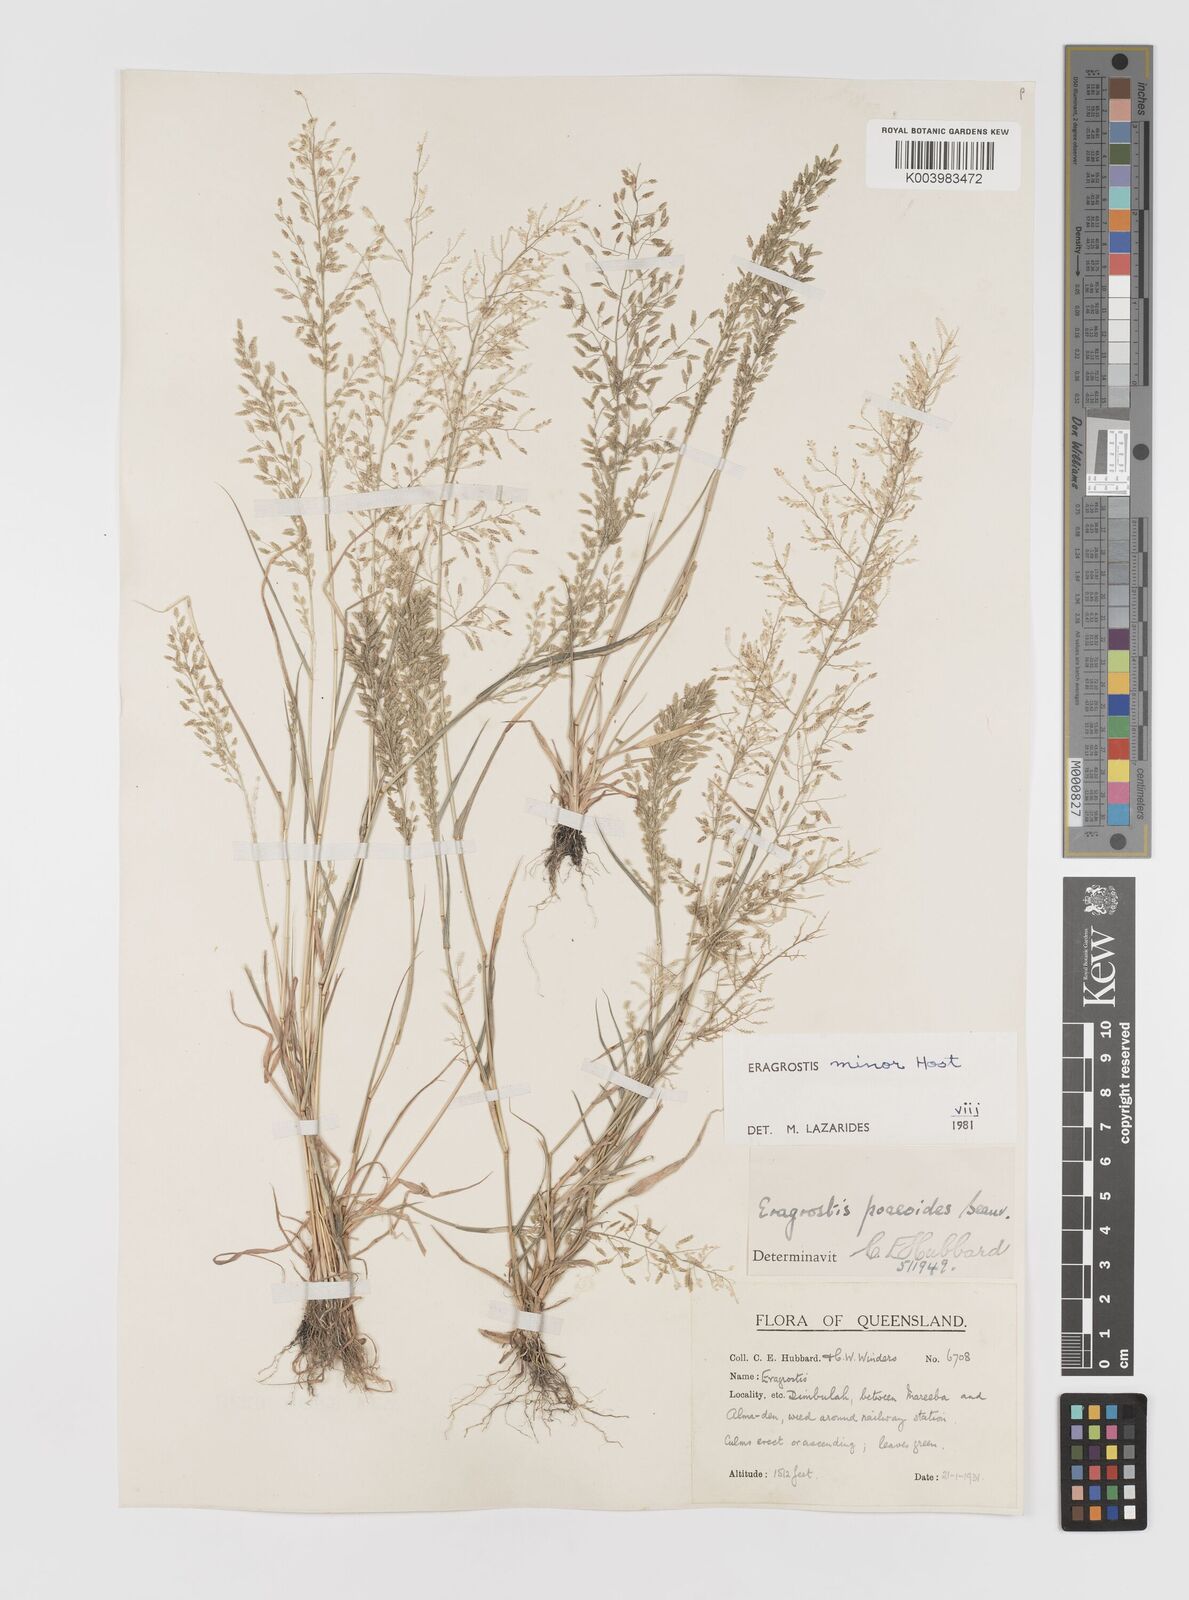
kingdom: Plantae
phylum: Tracheophyta
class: Liliopsida
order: Poales
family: Poaceae
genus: Eragrostis
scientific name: Eragrostis minor
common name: Small love-grass
